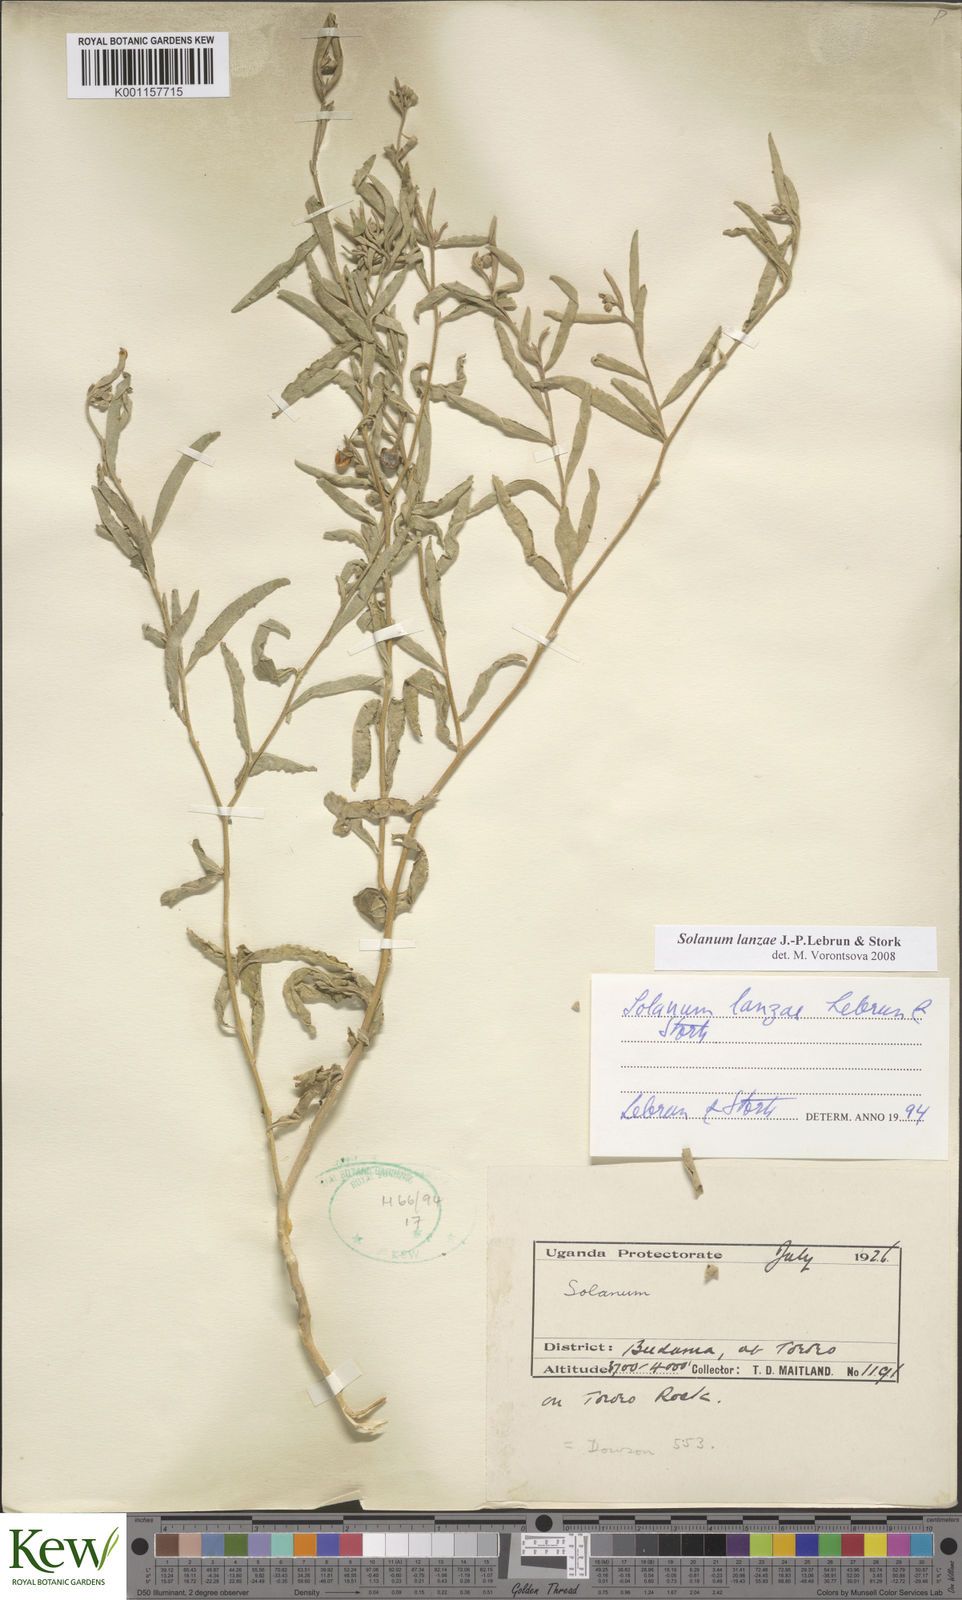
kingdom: Plantae
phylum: Tracheophyta
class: Magnoliopsida
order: Solanales
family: Solanaceae
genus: Solanum
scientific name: Solanum lanzae
